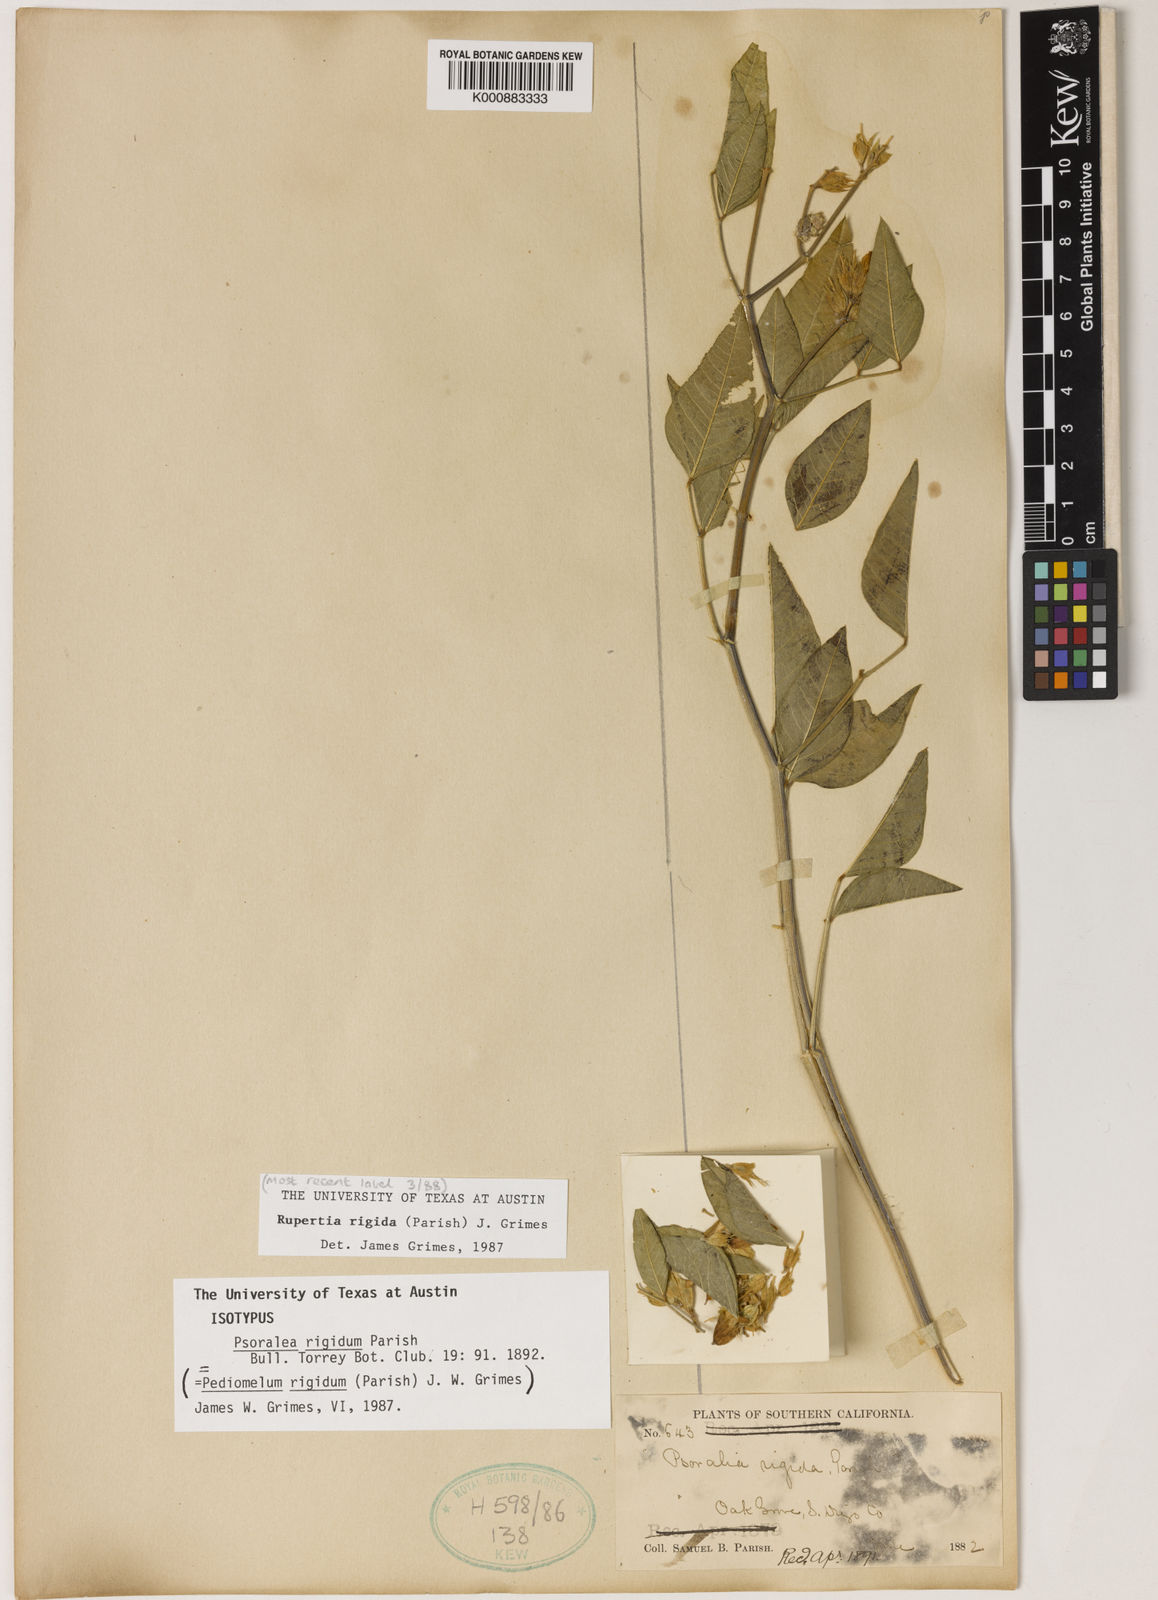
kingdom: Plantae
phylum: Tracheophyta
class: Magnoliopsida
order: Fabales
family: Fabaceae
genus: Rupertia
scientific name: Rupertia rigida
